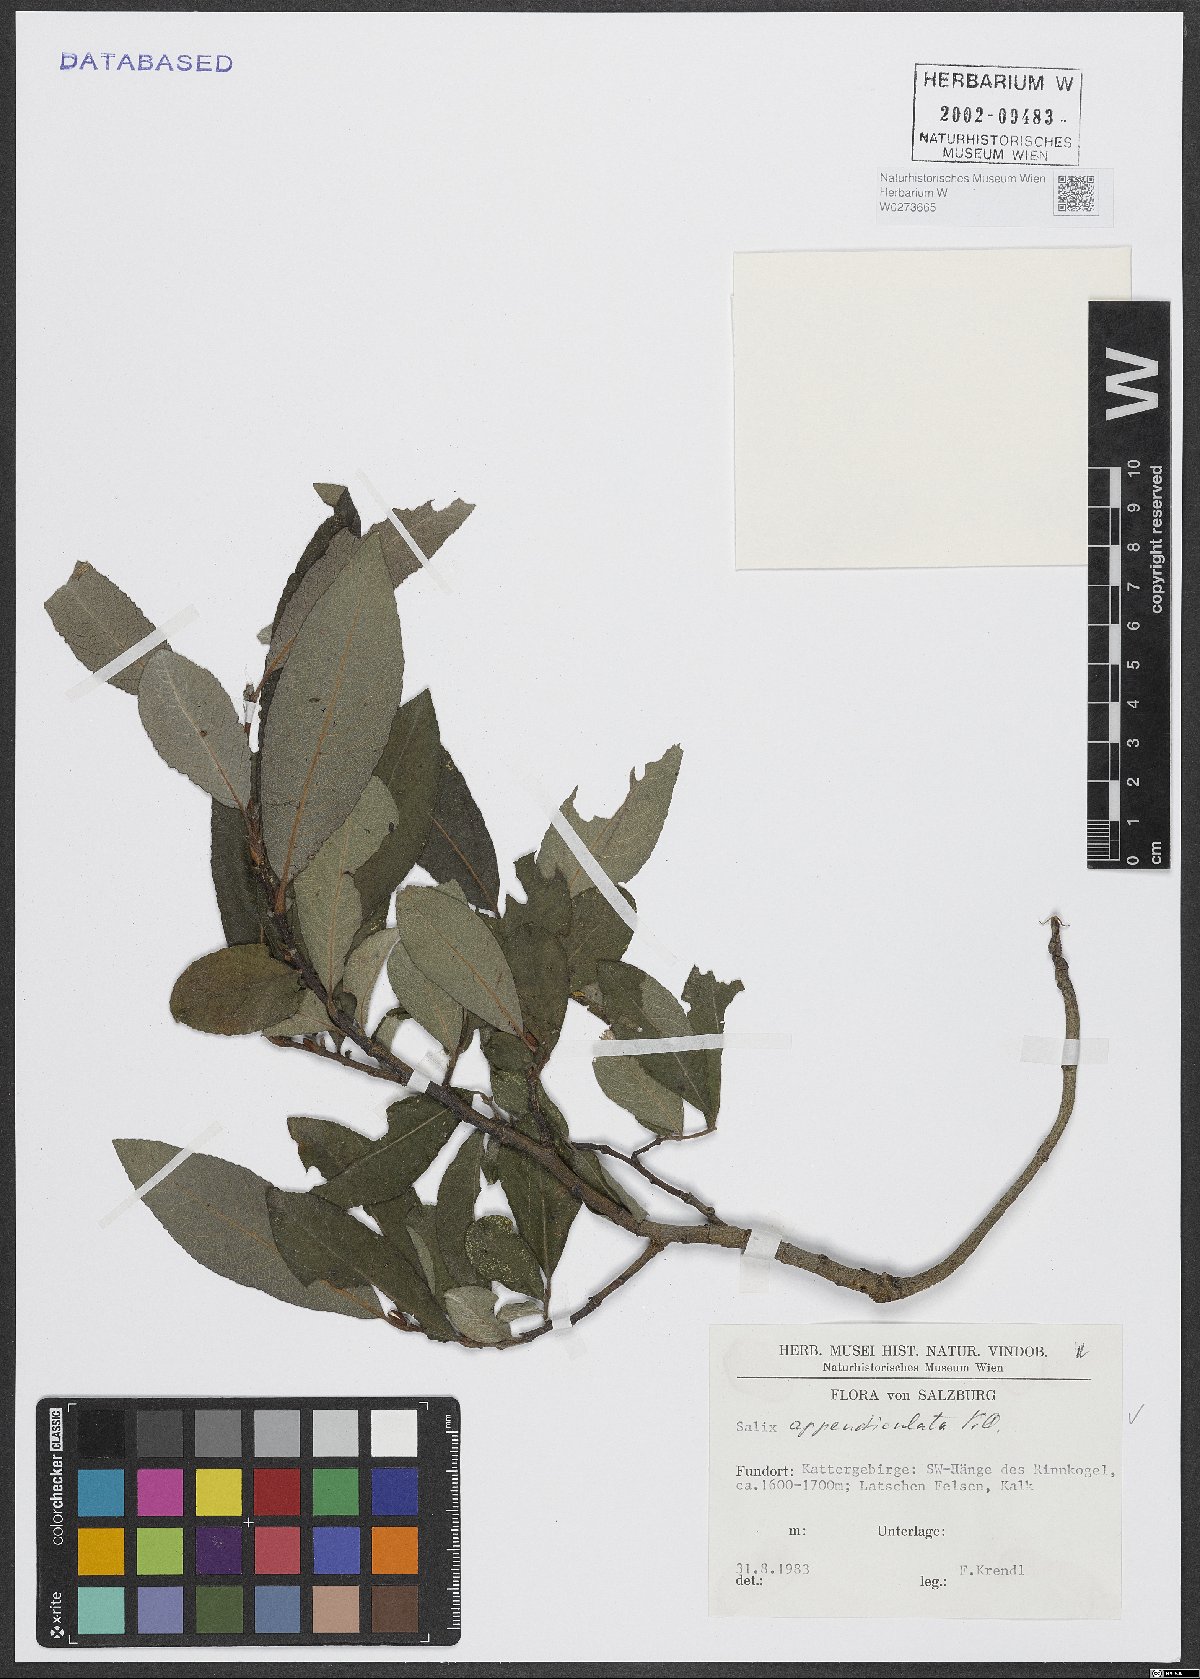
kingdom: Plantae
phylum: Tracheophyta
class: Magnoliopsida
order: Malpighiales
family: Salicaceae
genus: Salix
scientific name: Salix appendiculata
